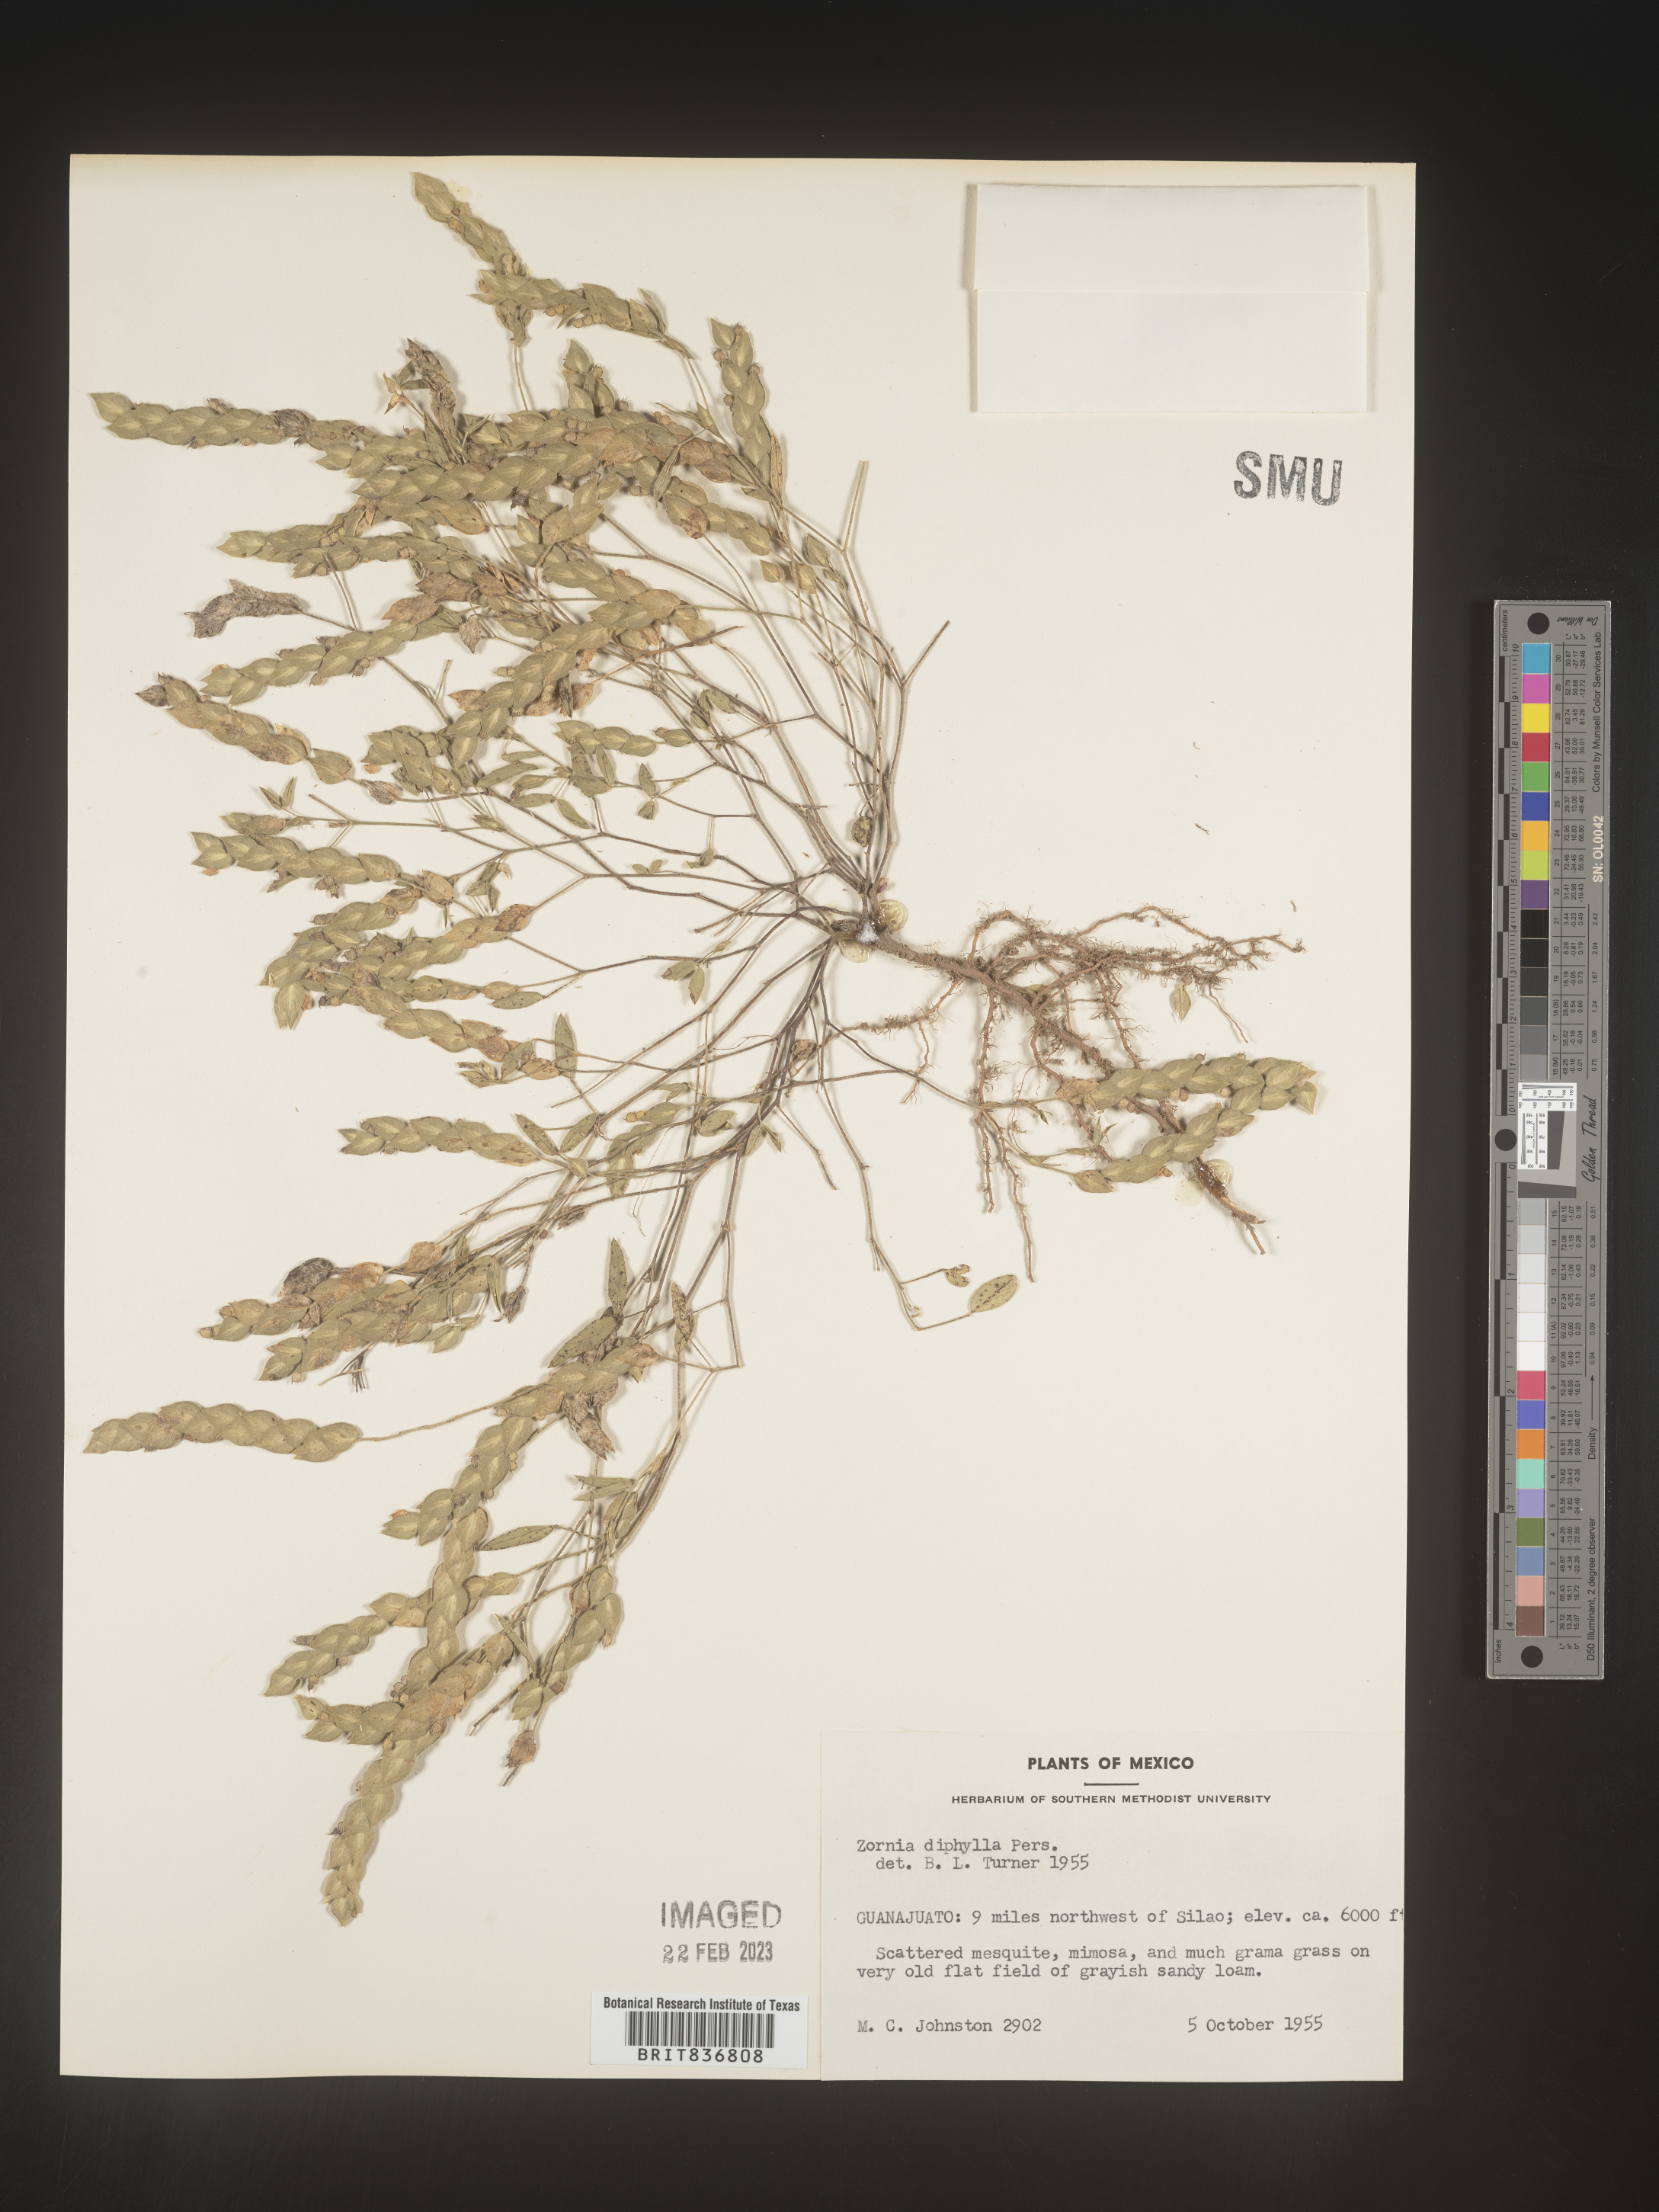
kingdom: Plantae
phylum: Tracheophyta
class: Magnoliopsida
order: Fabales
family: Fabaceae
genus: Zornia
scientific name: Zornia
